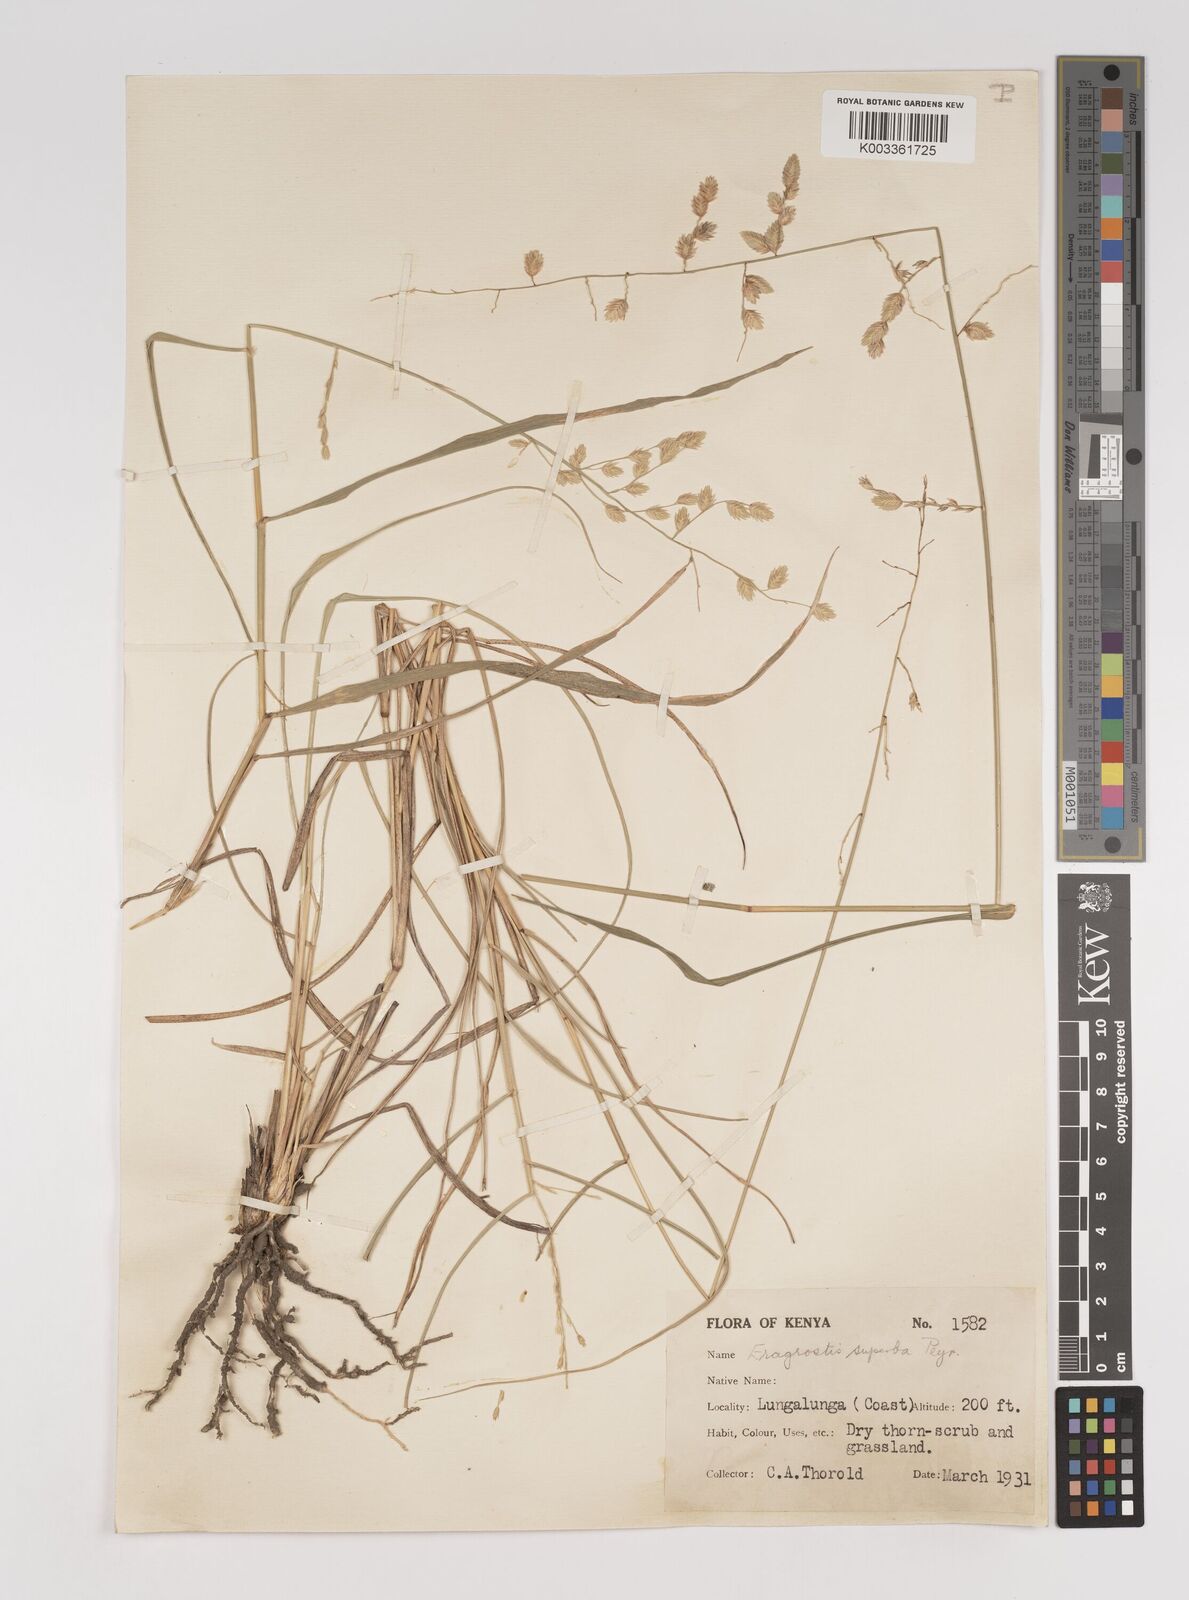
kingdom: Plantae
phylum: Tracheophyta
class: Liliopsida
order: Poales
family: Poaceae
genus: Eragrostis
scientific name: Eragrostis superba
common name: Wilman lovegrass
